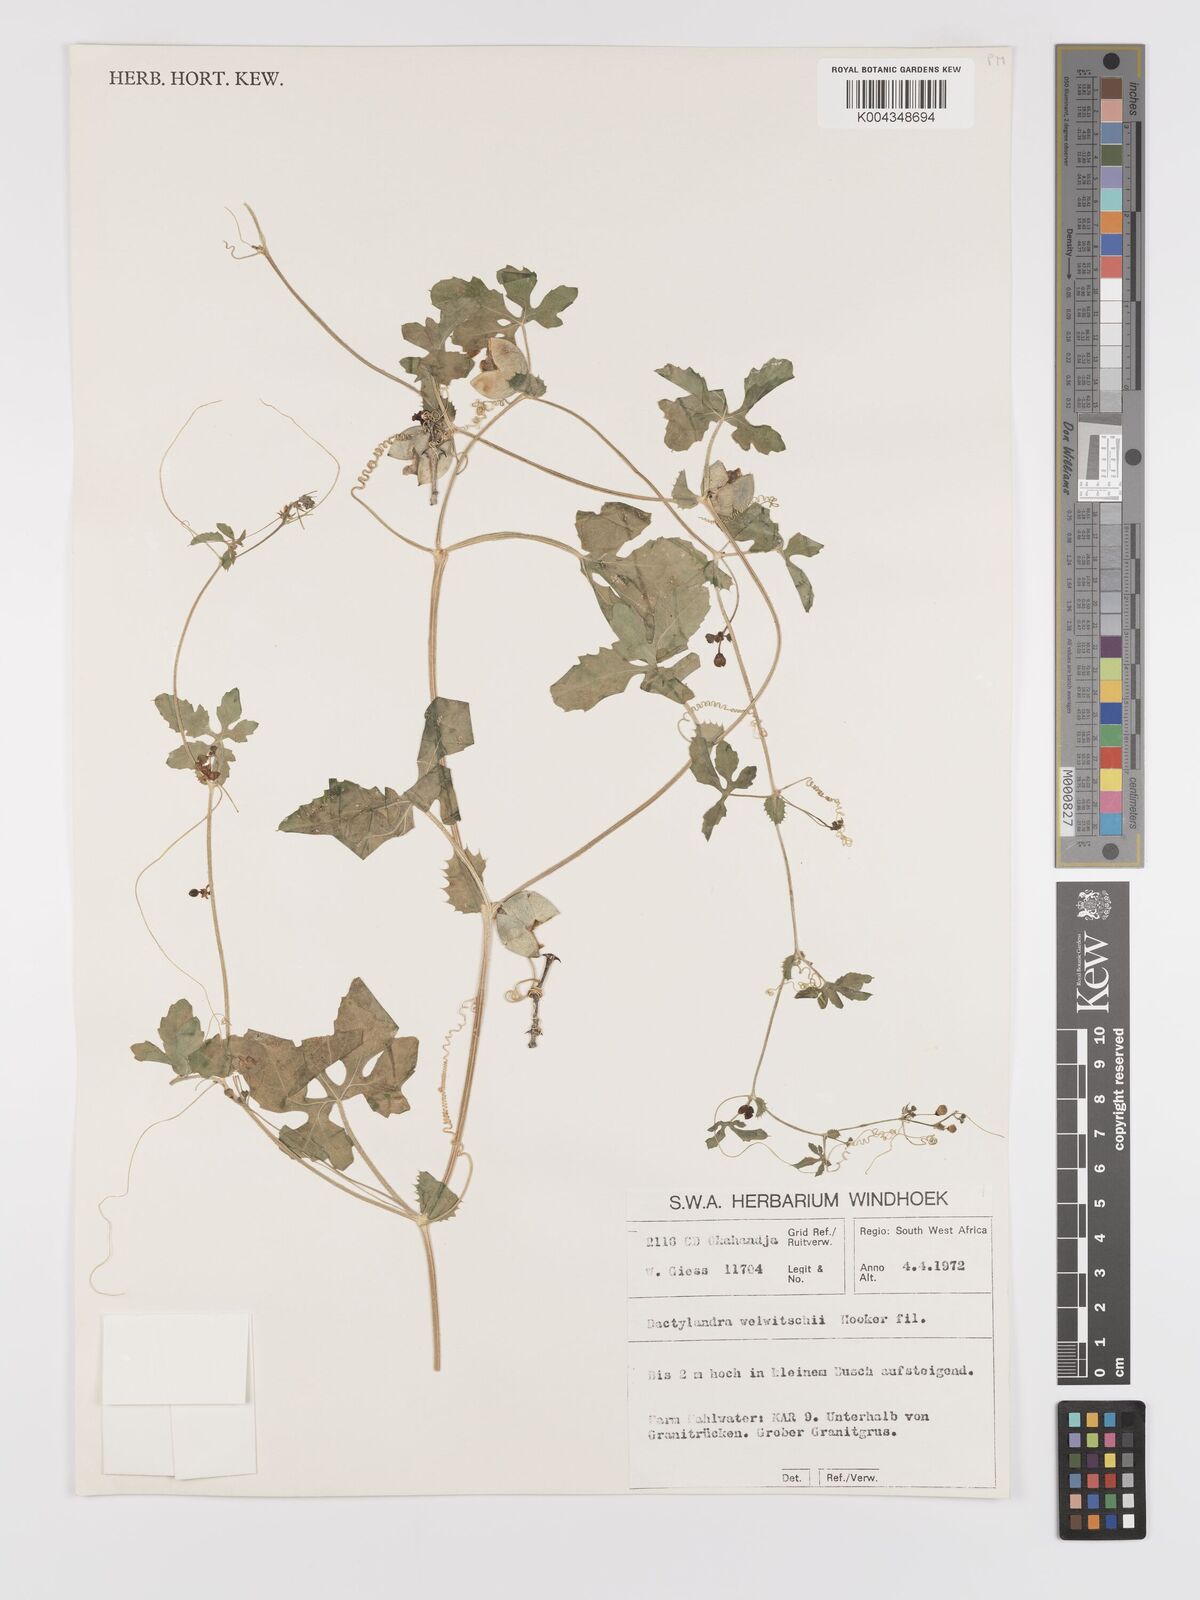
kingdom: Plantae
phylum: Tracheophyta
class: Magnoliopsida
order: Cucurbitales
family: Cucurbitaceae
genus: Dactyliandra
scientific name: Dactyliandra welwitschii
